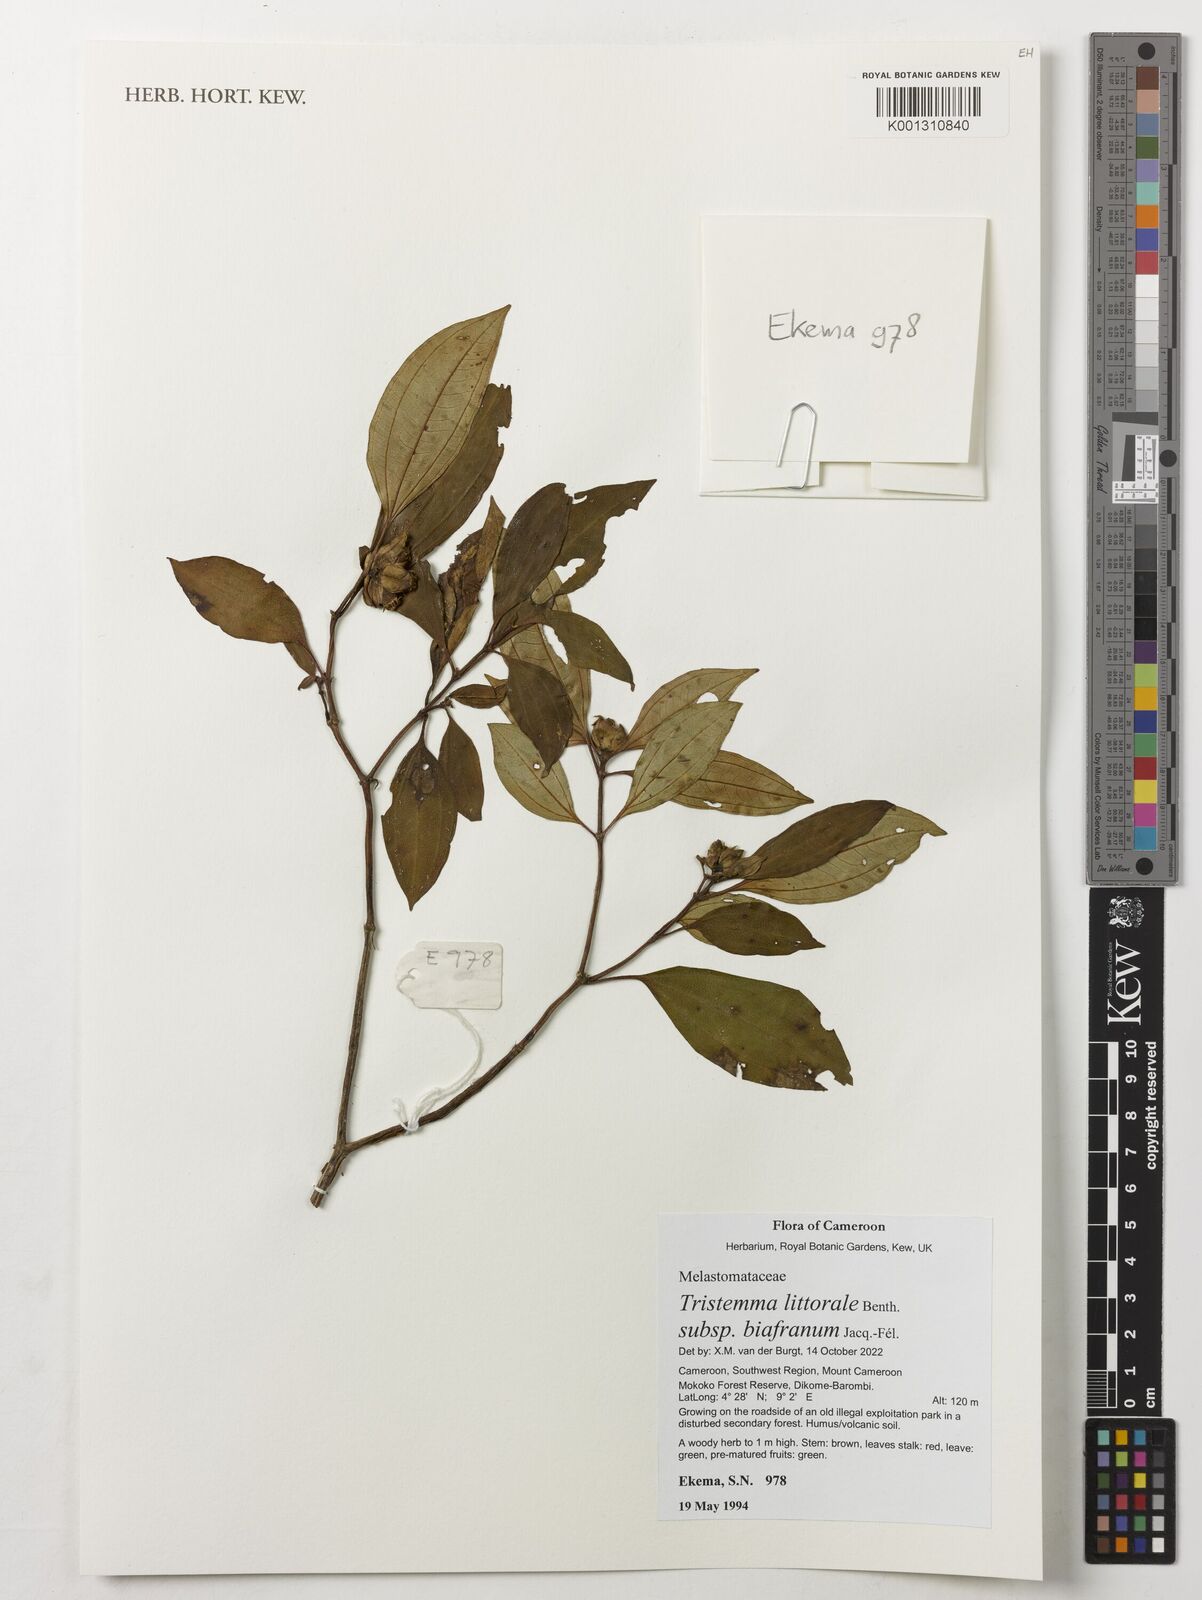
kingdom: Plantae
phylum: Tracheophyta
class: Magnoliopsida
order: Myrtales
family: Melastomataceae
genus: Tristemma
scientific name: Tristemma littorale
